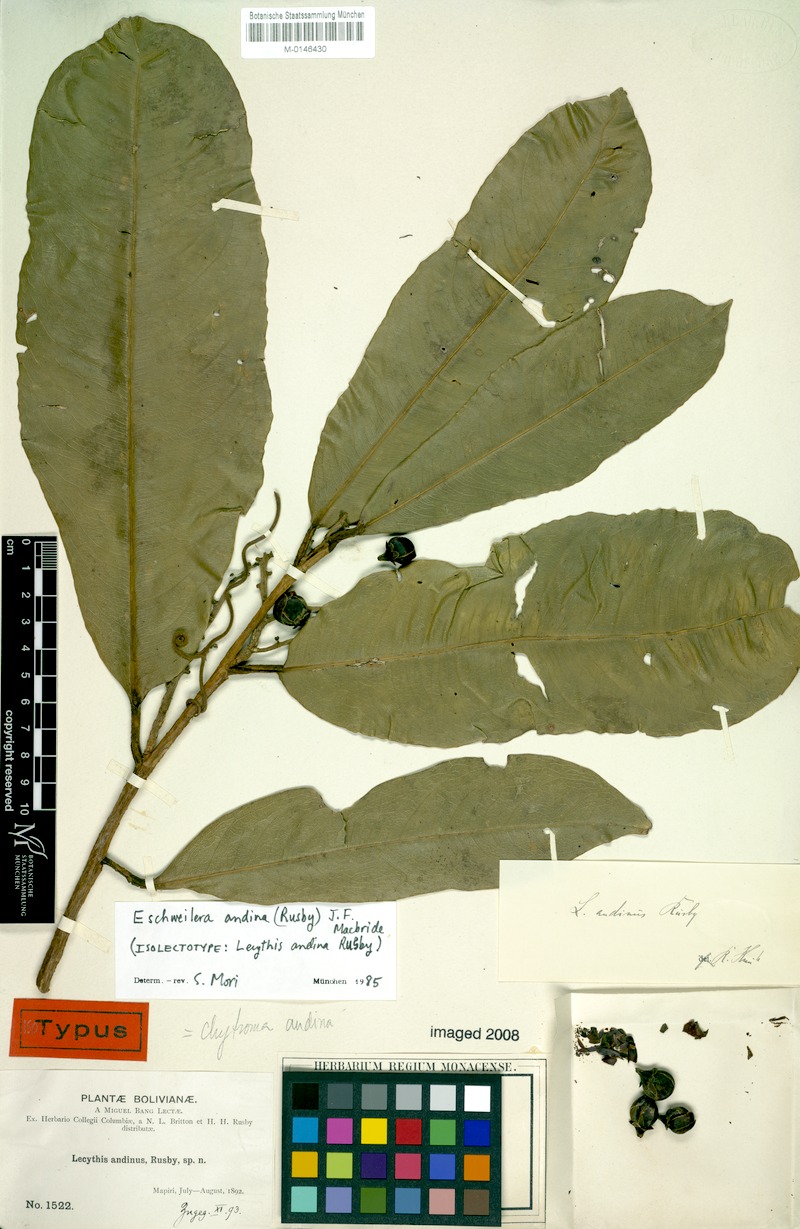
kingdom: Plantae
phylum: Tracheophyta
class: Magnoliopsida
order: Ericales
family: Lecythidaceae
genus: Eschweilera
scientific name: Eschweilera andina
